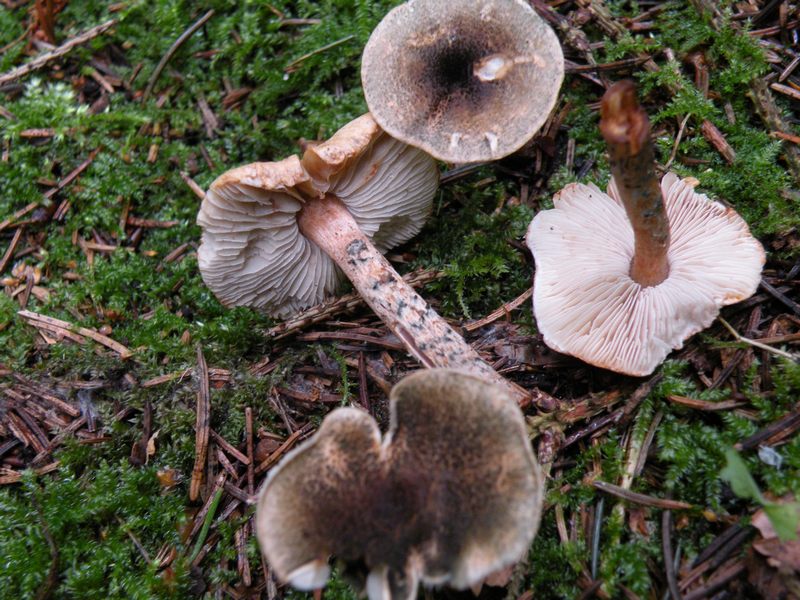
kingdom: Fungi
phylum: Basidiomycota
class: Agaricomycetes
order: Agaricales
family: Agaricaceae
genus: Lepiota
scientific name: Lepiota grangei
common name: grønskællet parasolhat
